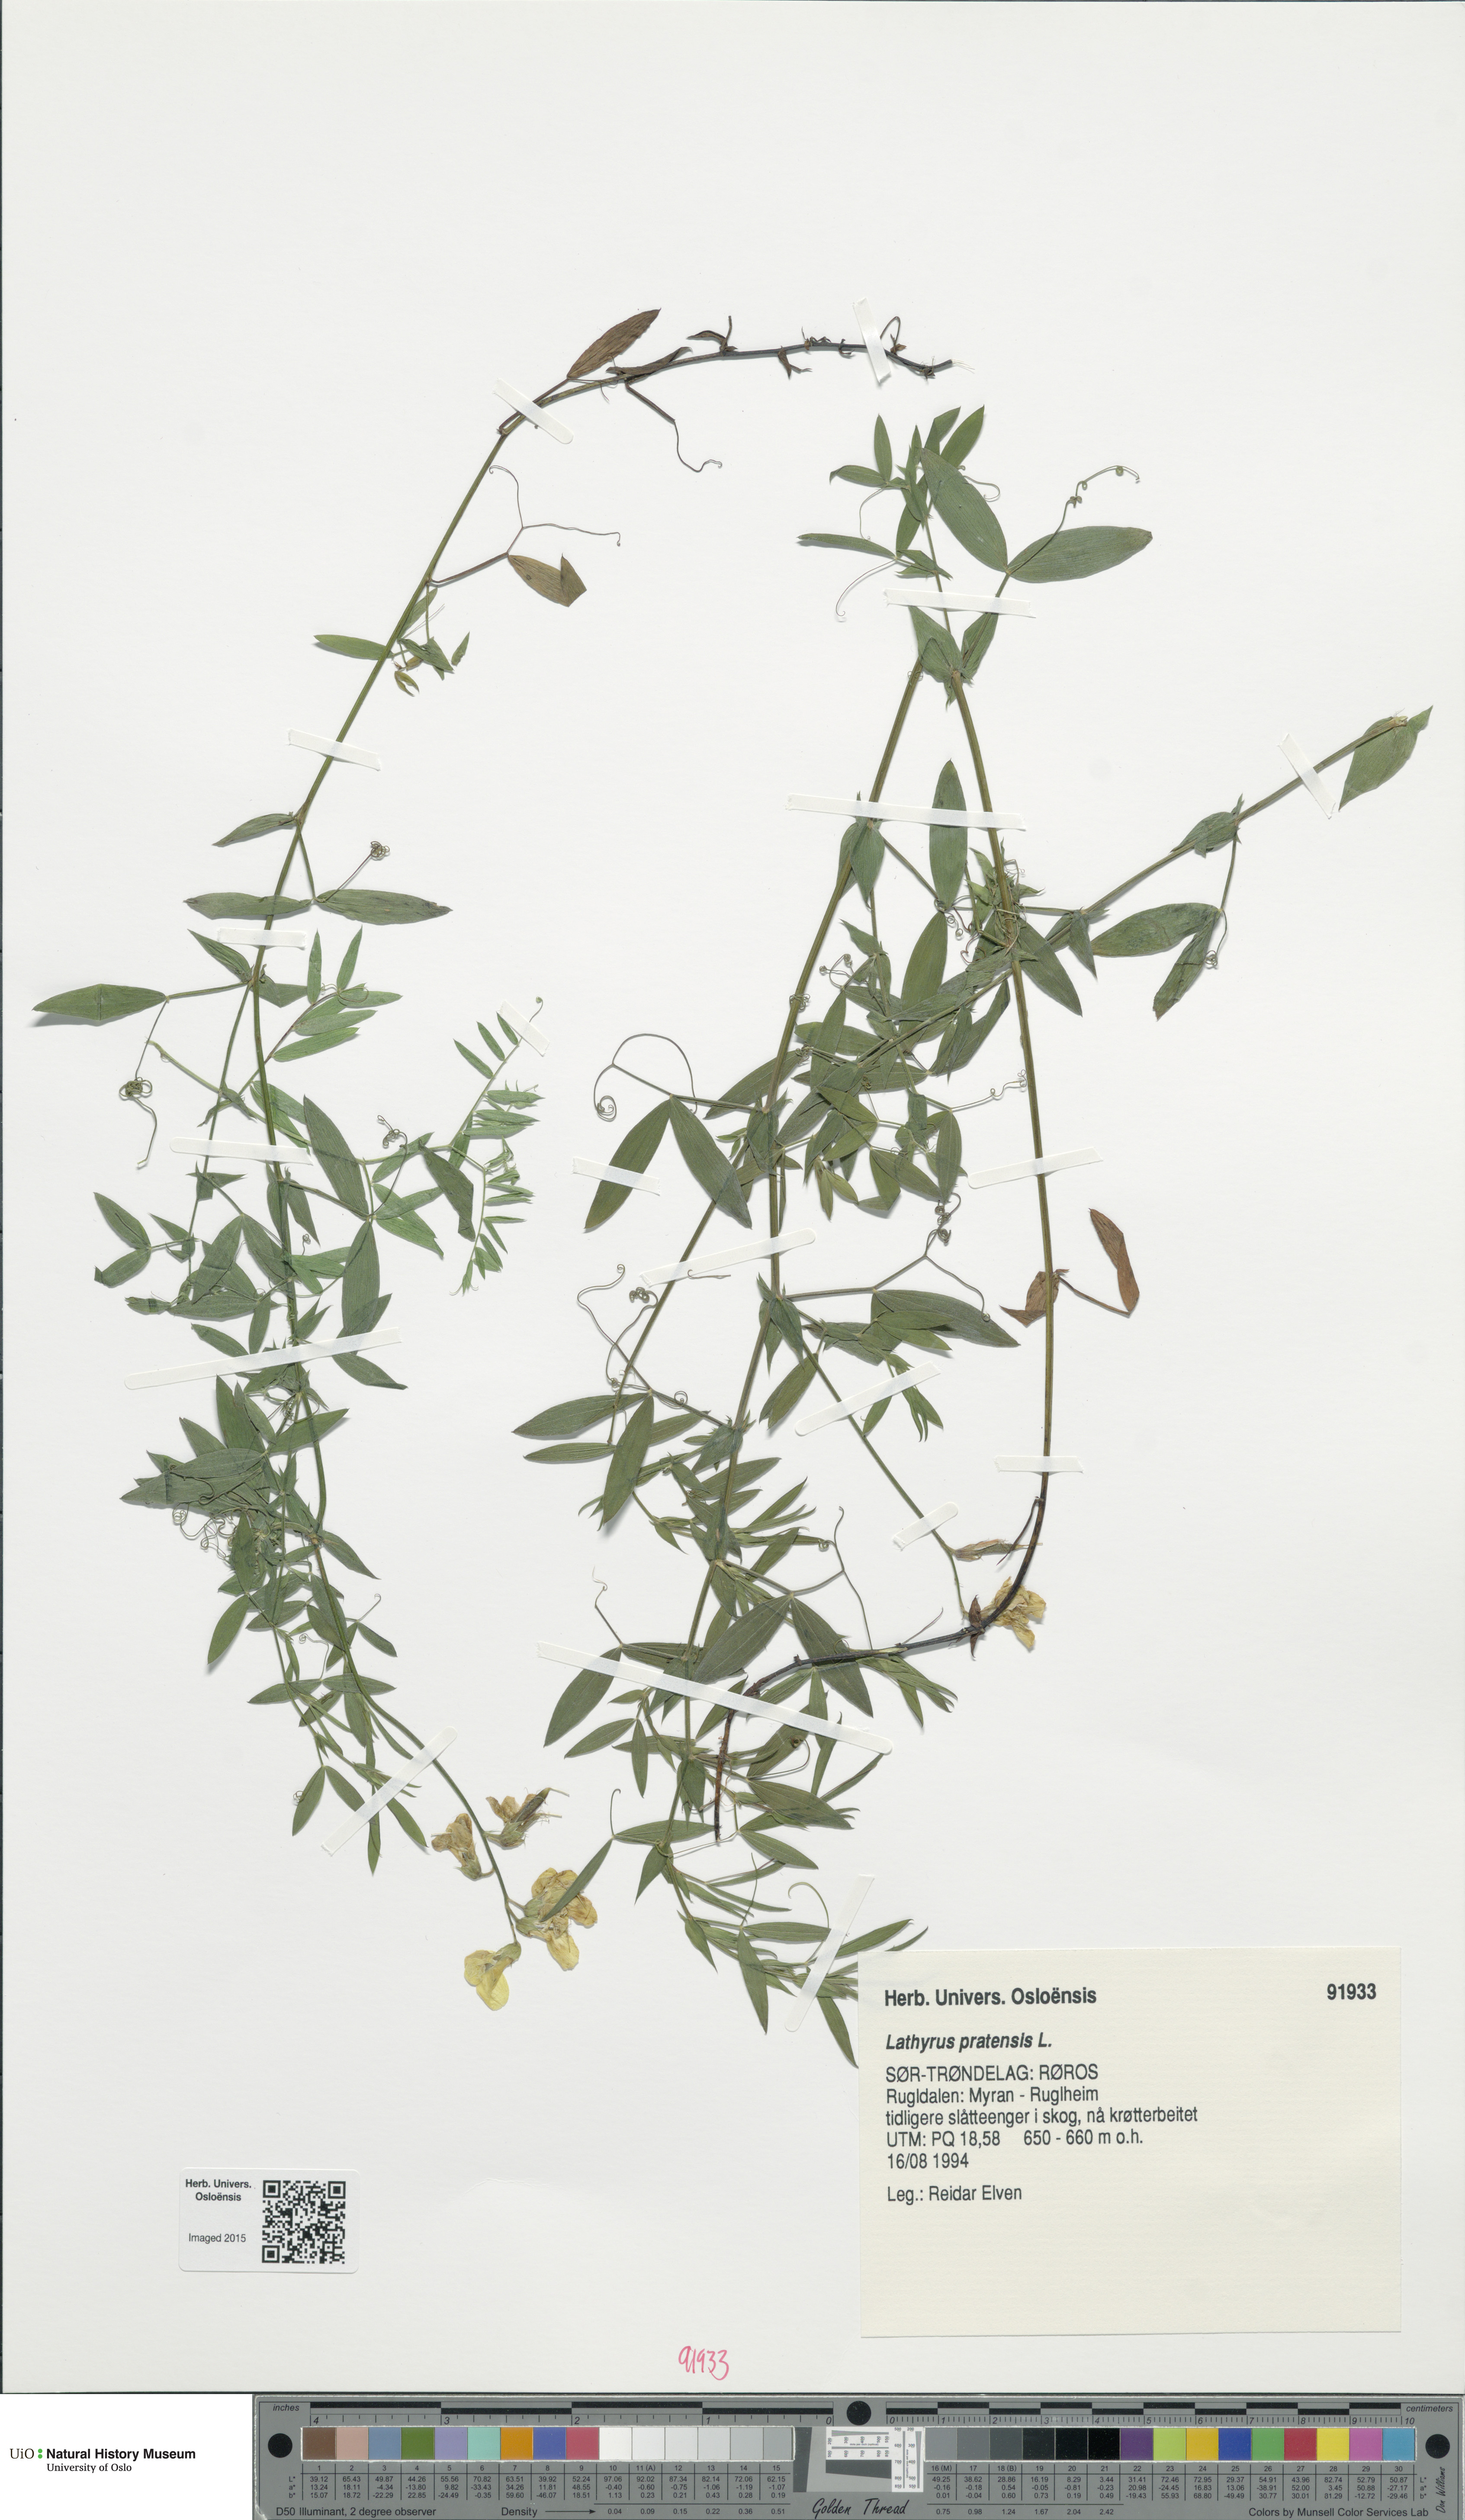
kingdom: Plantae
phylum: Tracheophyta
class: Magnoliopsida
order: Fabales
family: Fabaceae
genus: Lathyrus
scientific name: Lathyrus pratensis
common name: Meadow vetchling
